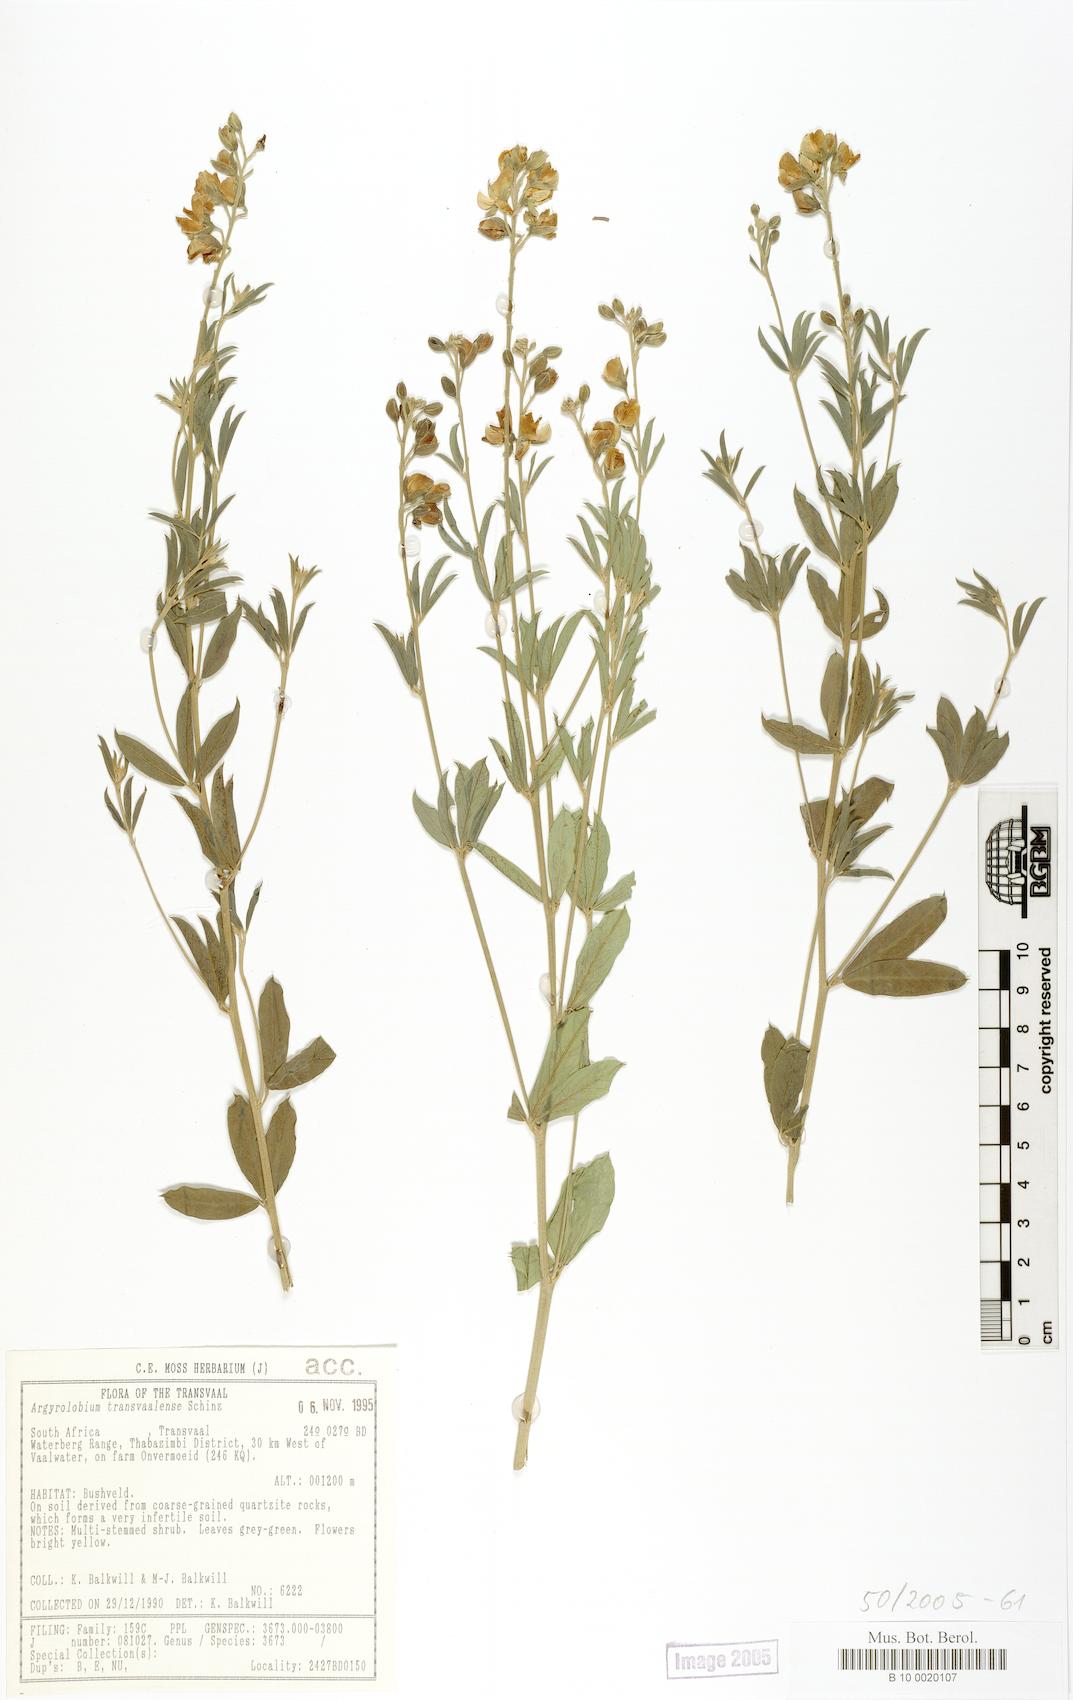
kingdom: Plantae
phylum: Tracheophyta
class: Magnoliopsida
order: Fabales
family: Fabaceae
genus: Argyrolobium
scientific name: Argyrolobium transvaalense
